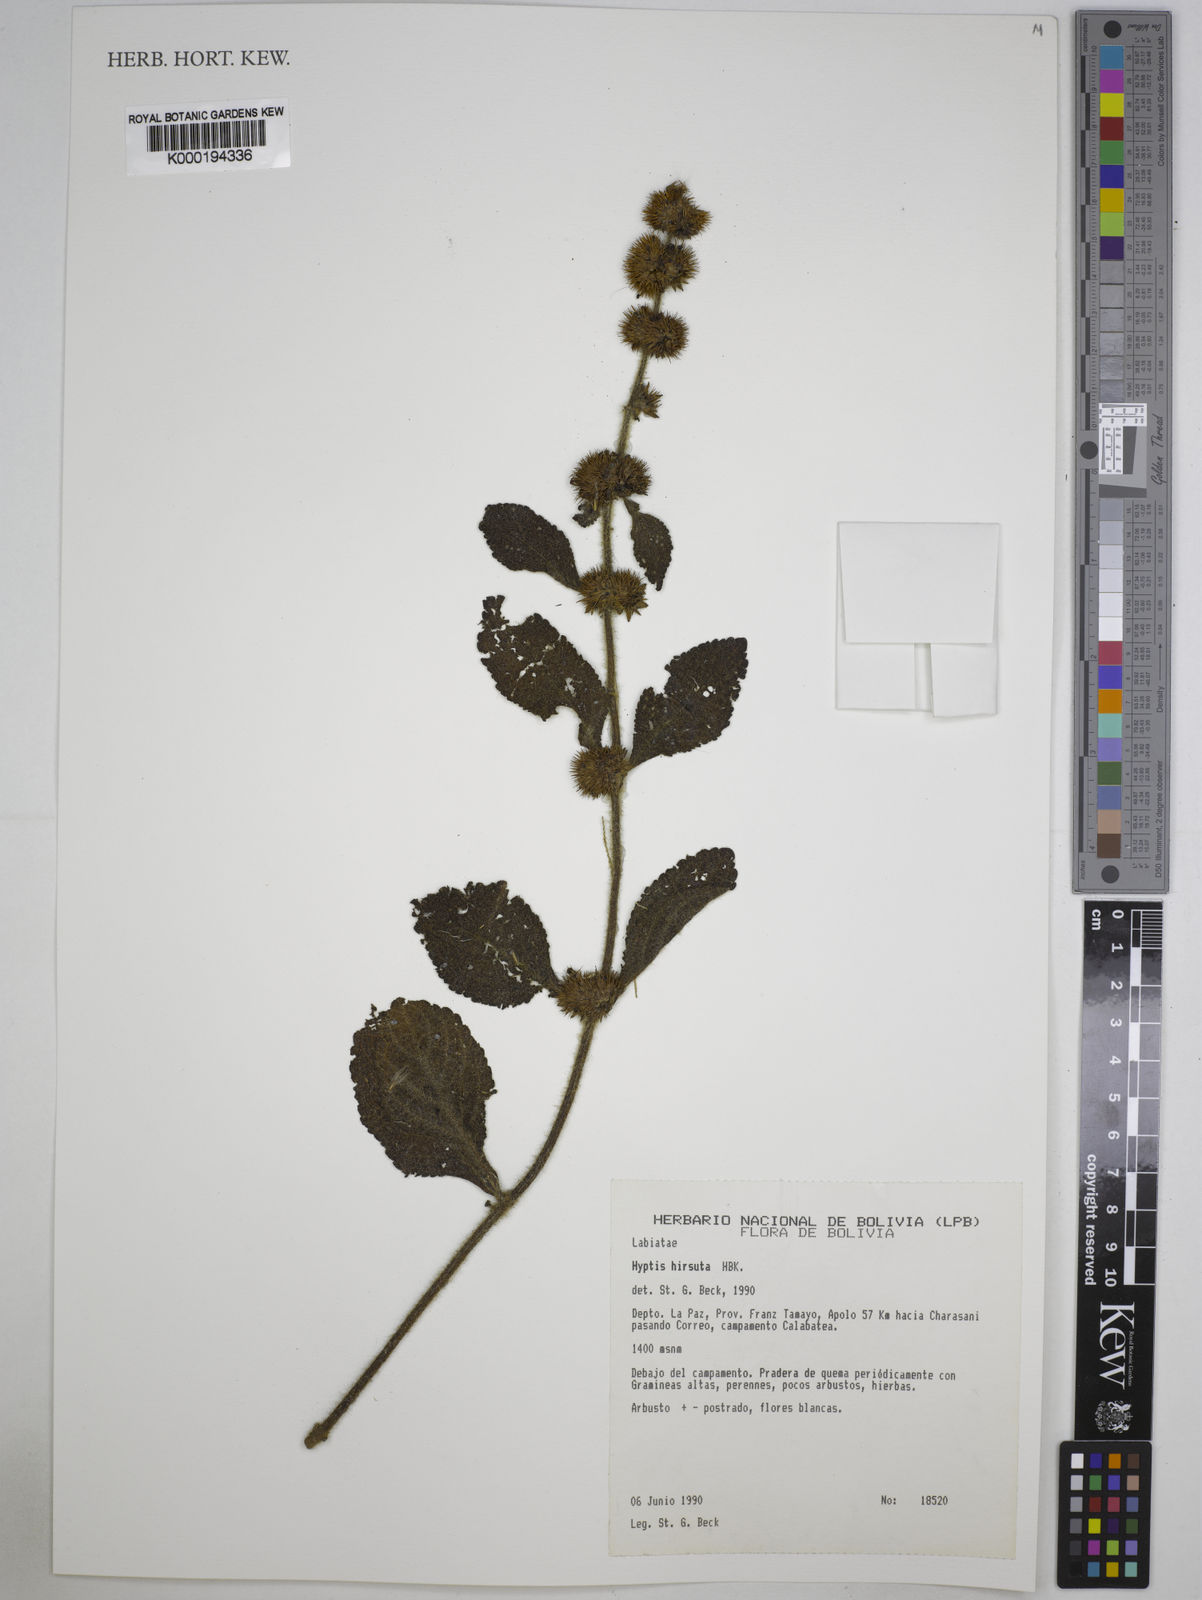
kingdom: Plantae
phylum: Tracheophyta
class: Magnoliopsida
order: Lamiales
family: Lamiaceae
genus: Hyptis
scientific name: Hyptis
